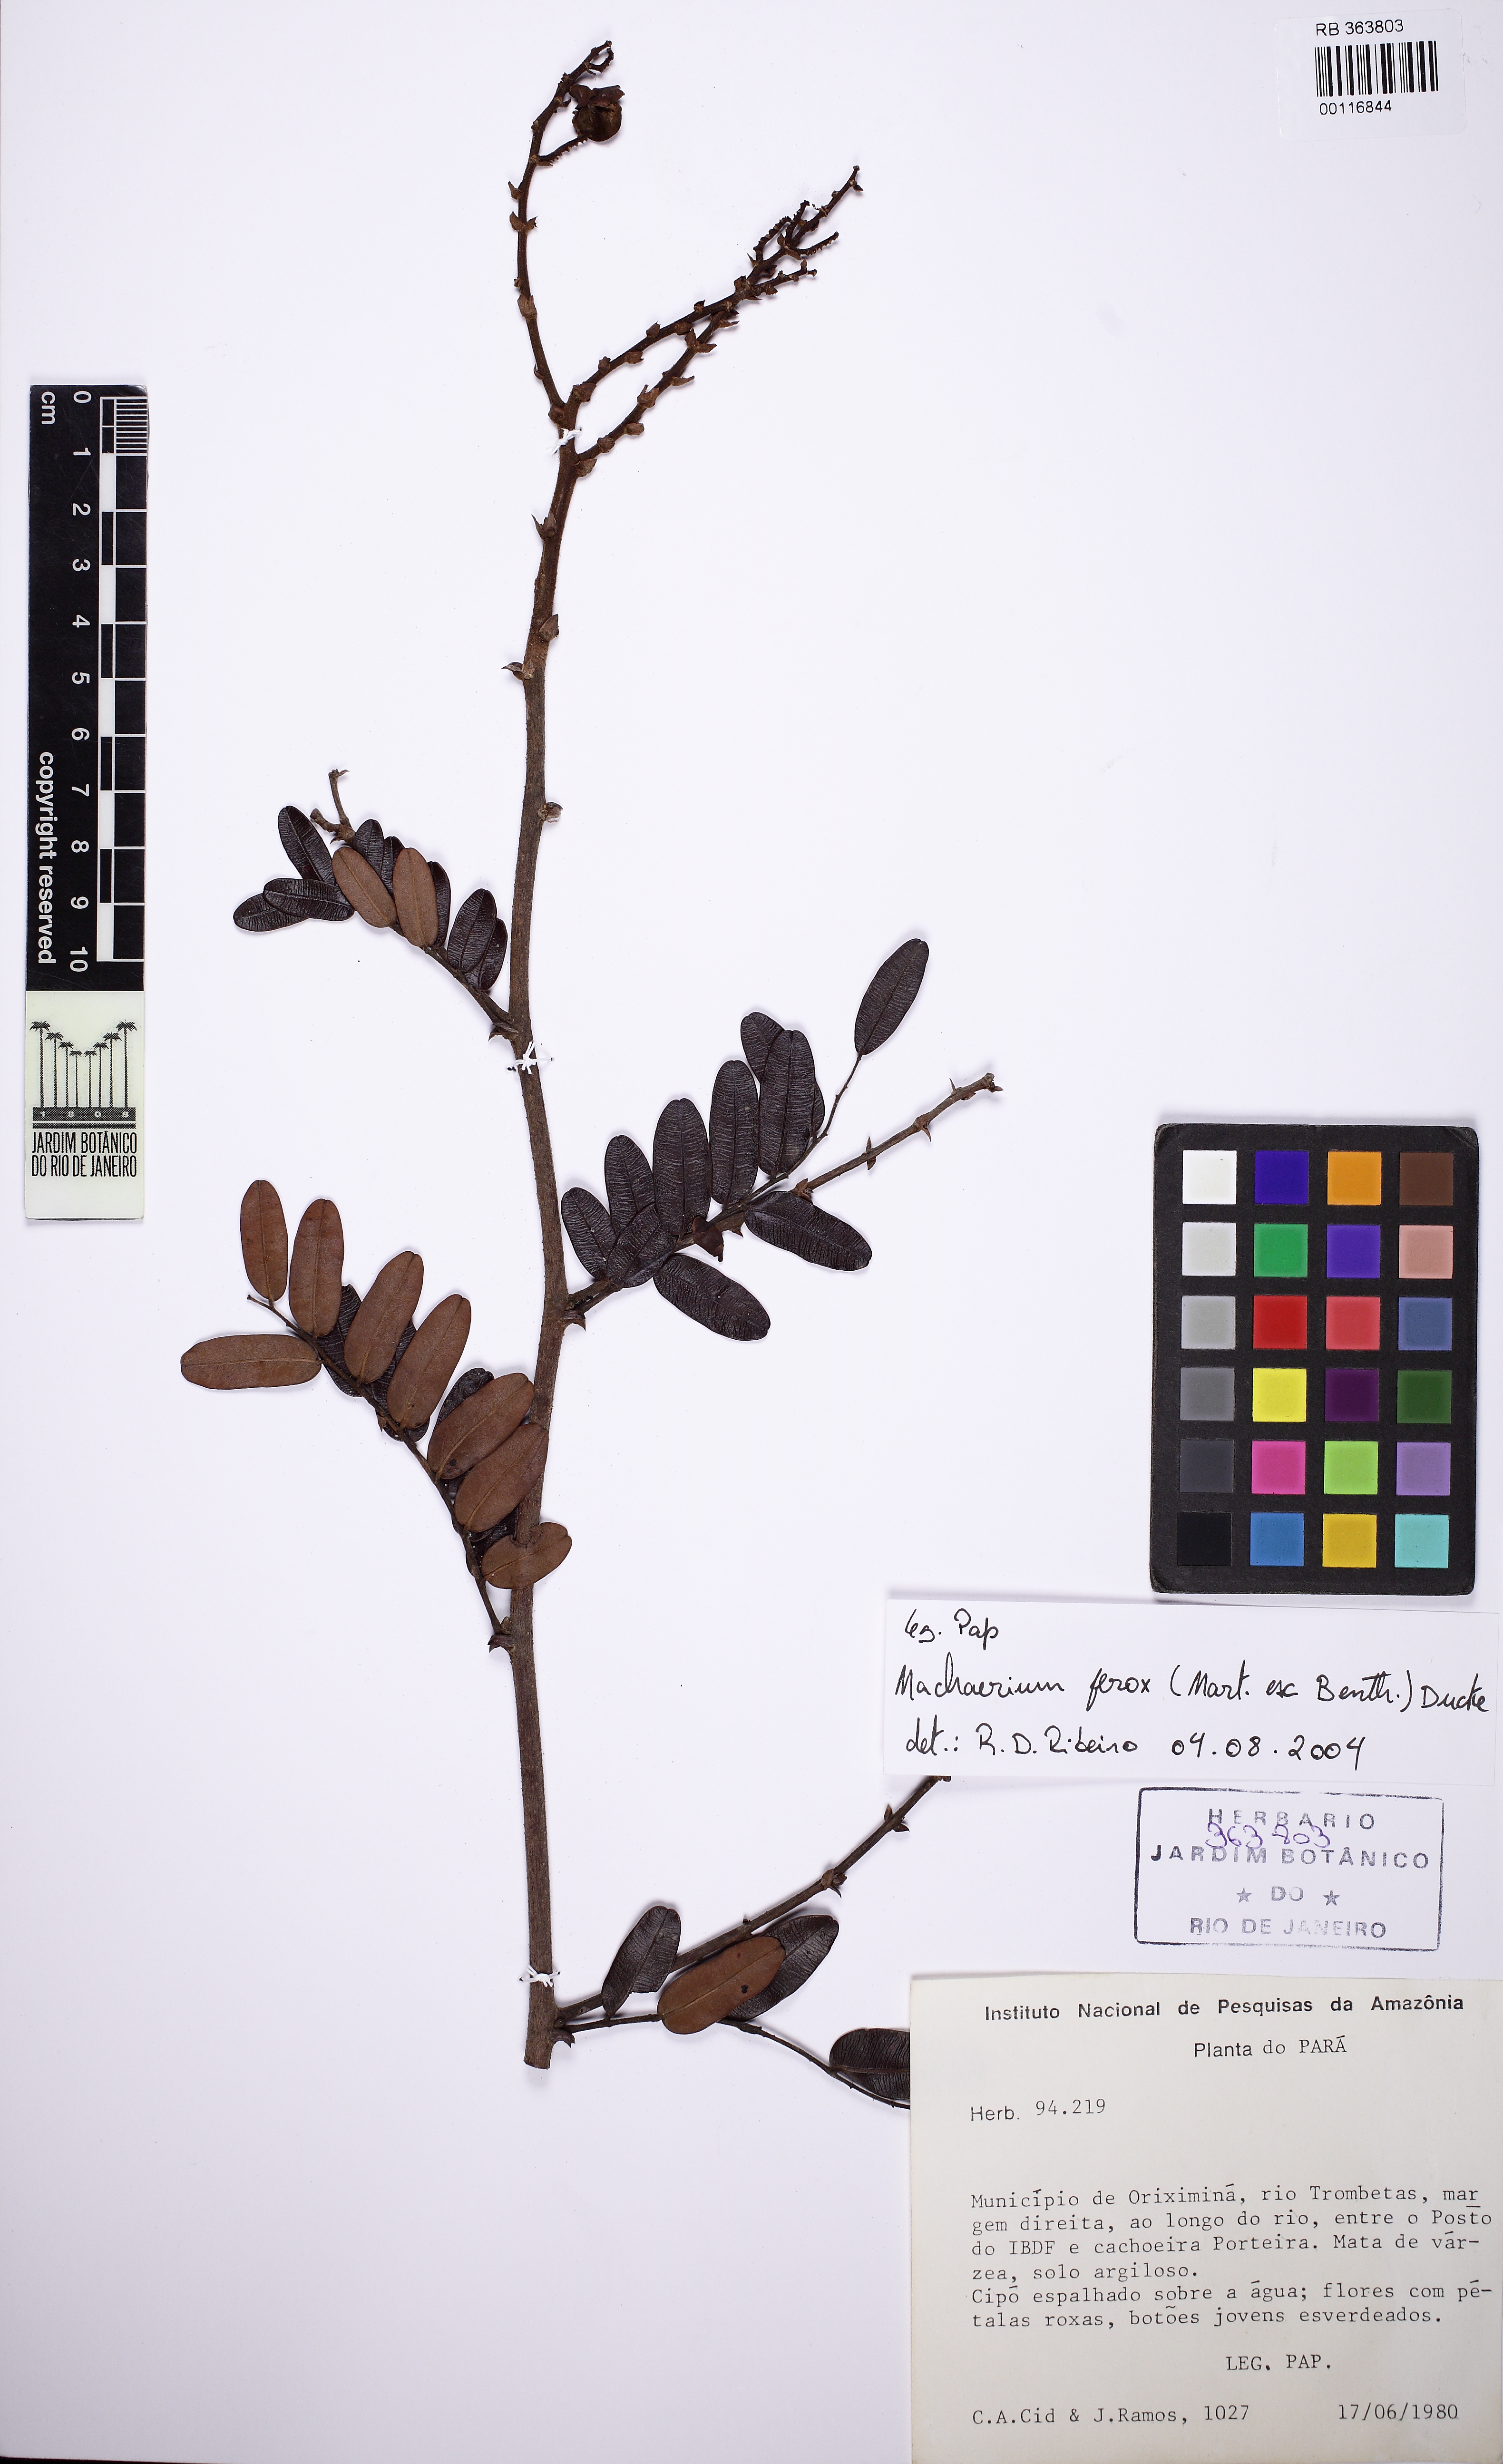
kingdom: Plantae
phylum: Tracheophyta
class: Magnoliopsida
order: Fabales
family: Fabaceae
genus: Machaerium
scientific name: Machaerium ferox
